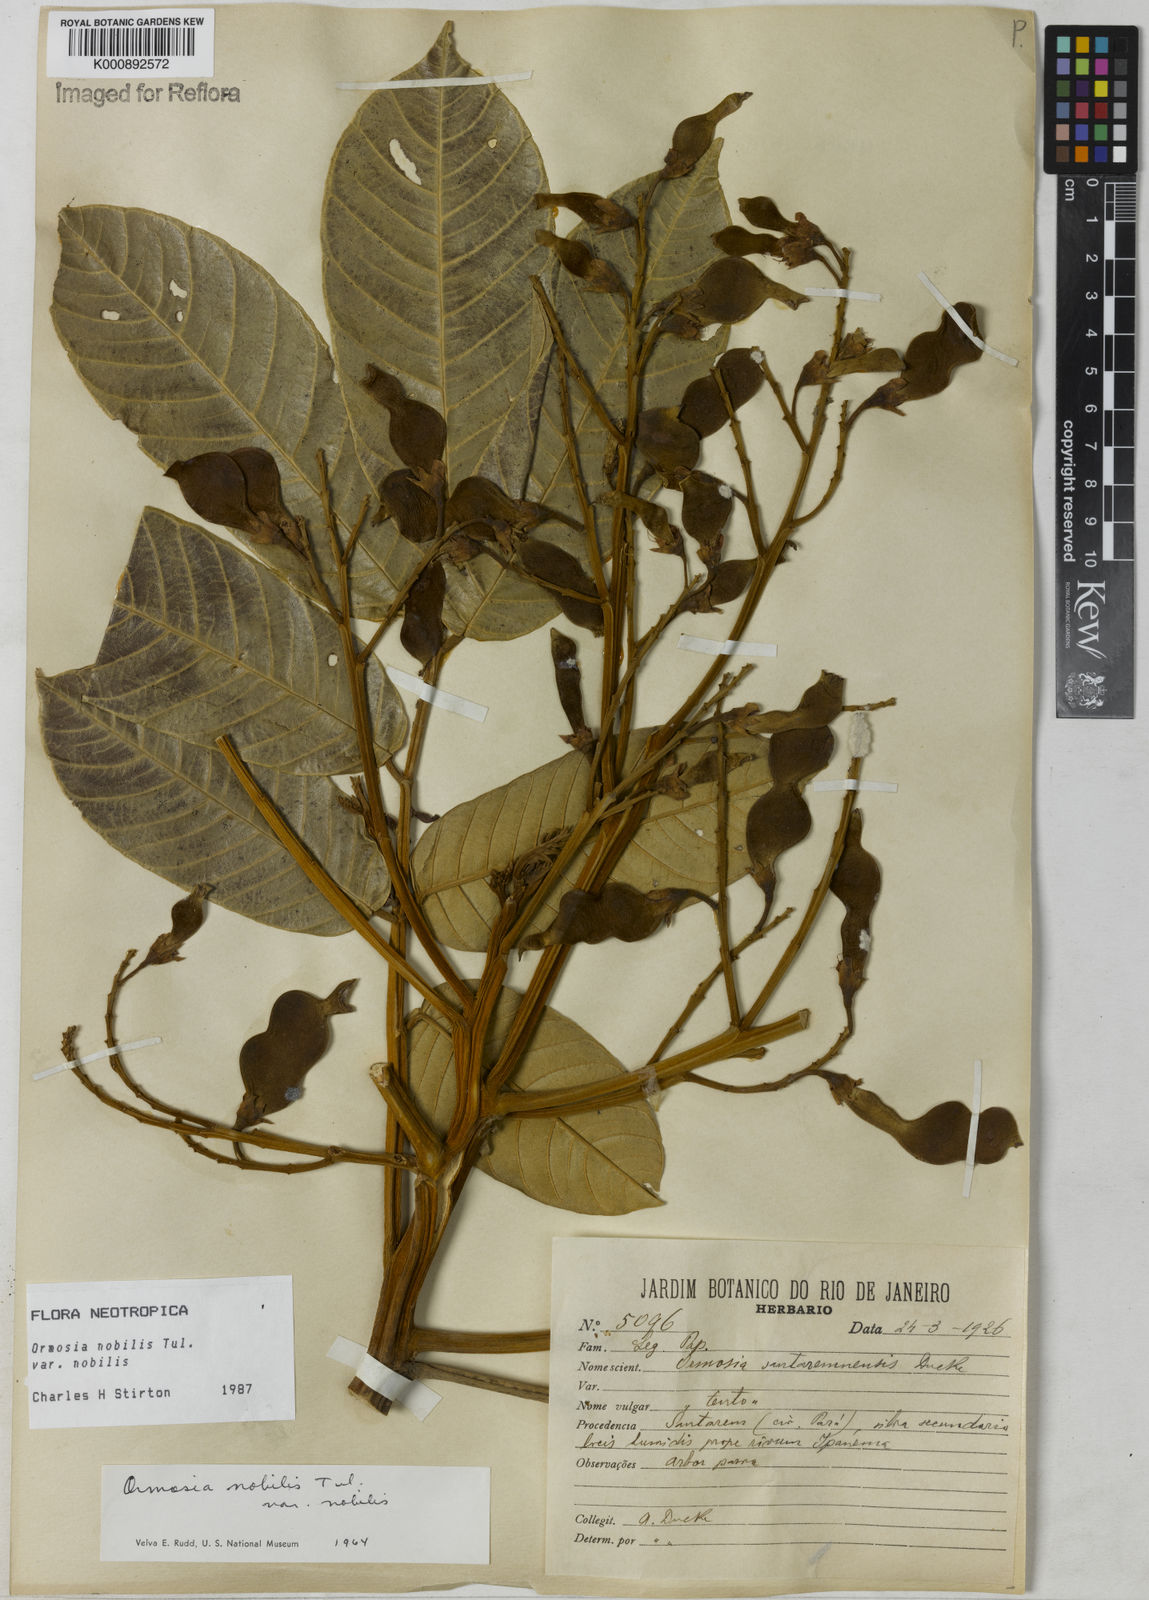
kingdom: Plantae
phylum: Tracheophyta
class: Magnoliopsida
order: Fabales
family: Fabaceae
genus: Ormosia
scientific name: Ormosia santaremnensis
